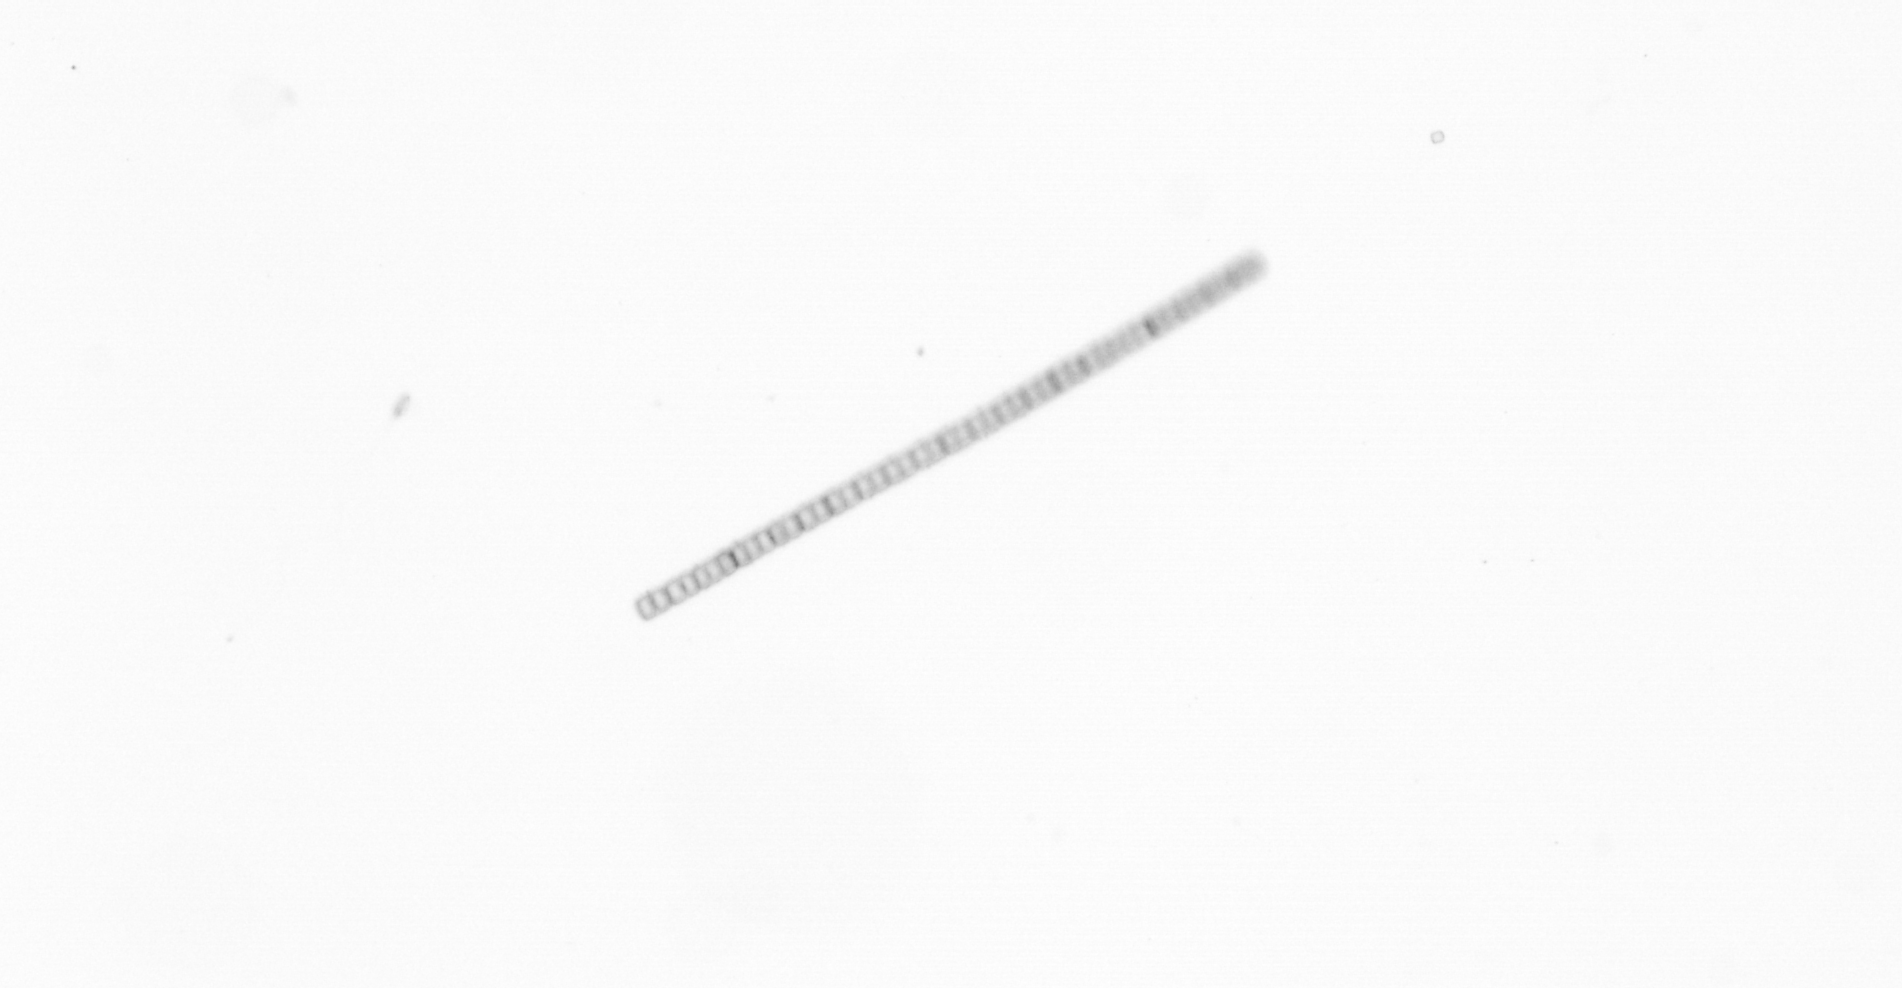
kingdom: Chromista
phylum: Ochrophyta
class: Bacillariophyceae
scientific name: Bacillariophyceae
